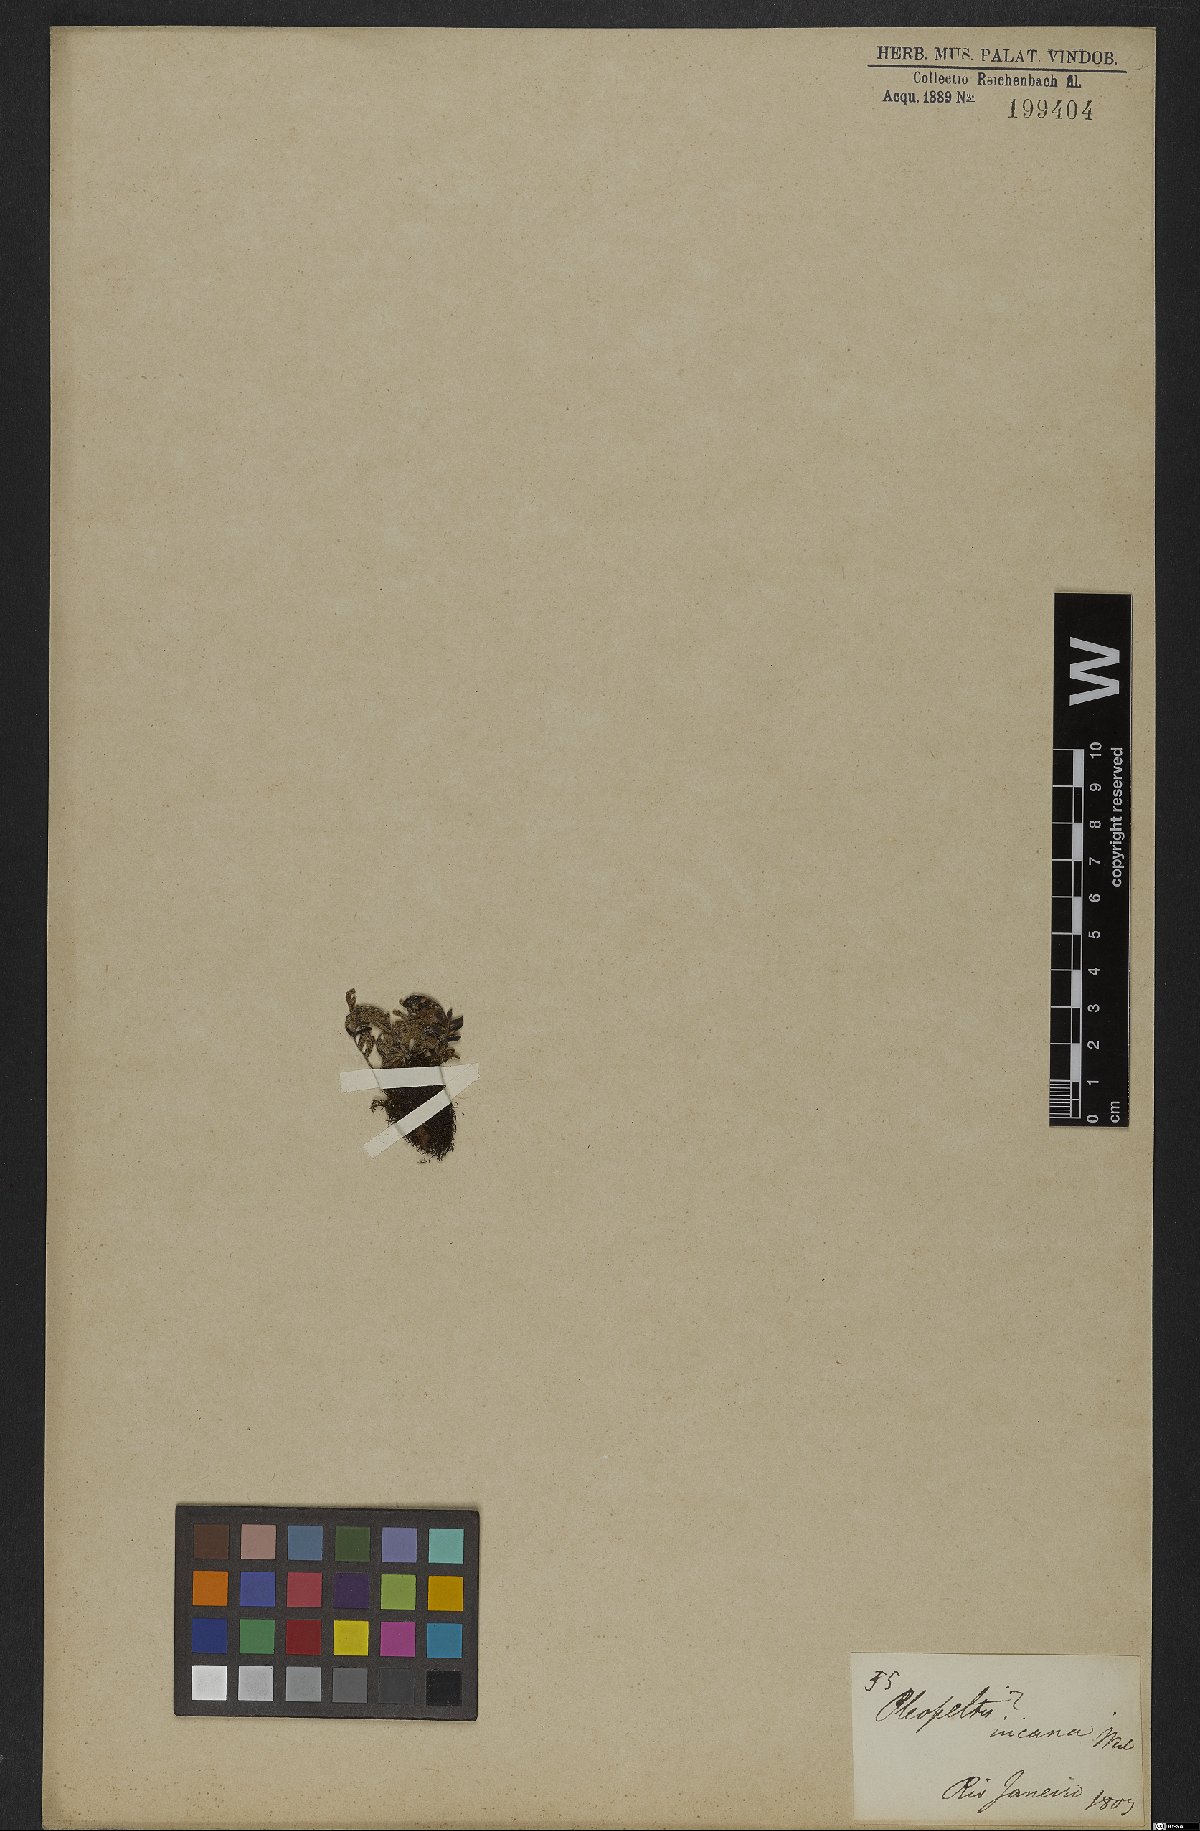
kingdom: Plantae
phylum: Tracheophyta
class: Polypodiopsida
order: Polypodiales
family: Polypodiaceae
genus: Pleopeltis
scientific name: Pleopeltis polypodioides
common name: Resurrection fern
